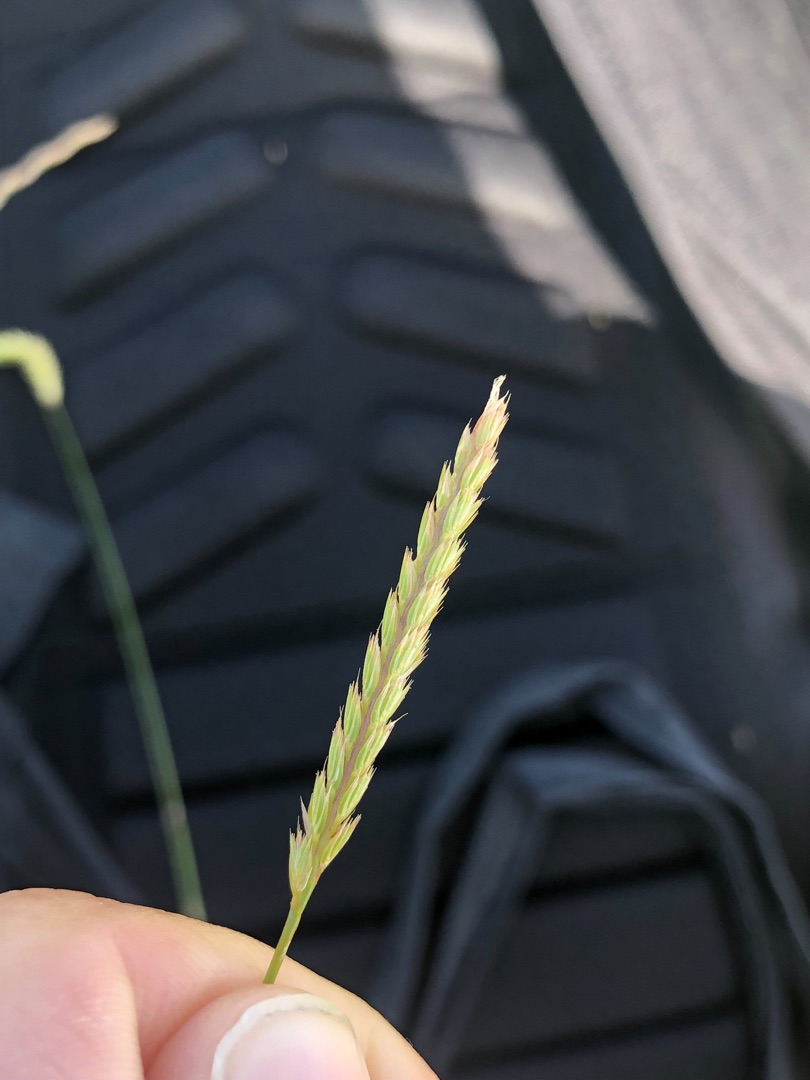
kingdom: Plantae
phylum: Tracheophyta
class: Liliopsida
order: Poales
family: Poaceae
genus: Cynosurus
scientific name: Cynosurus cristatus
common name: Kamgræs
